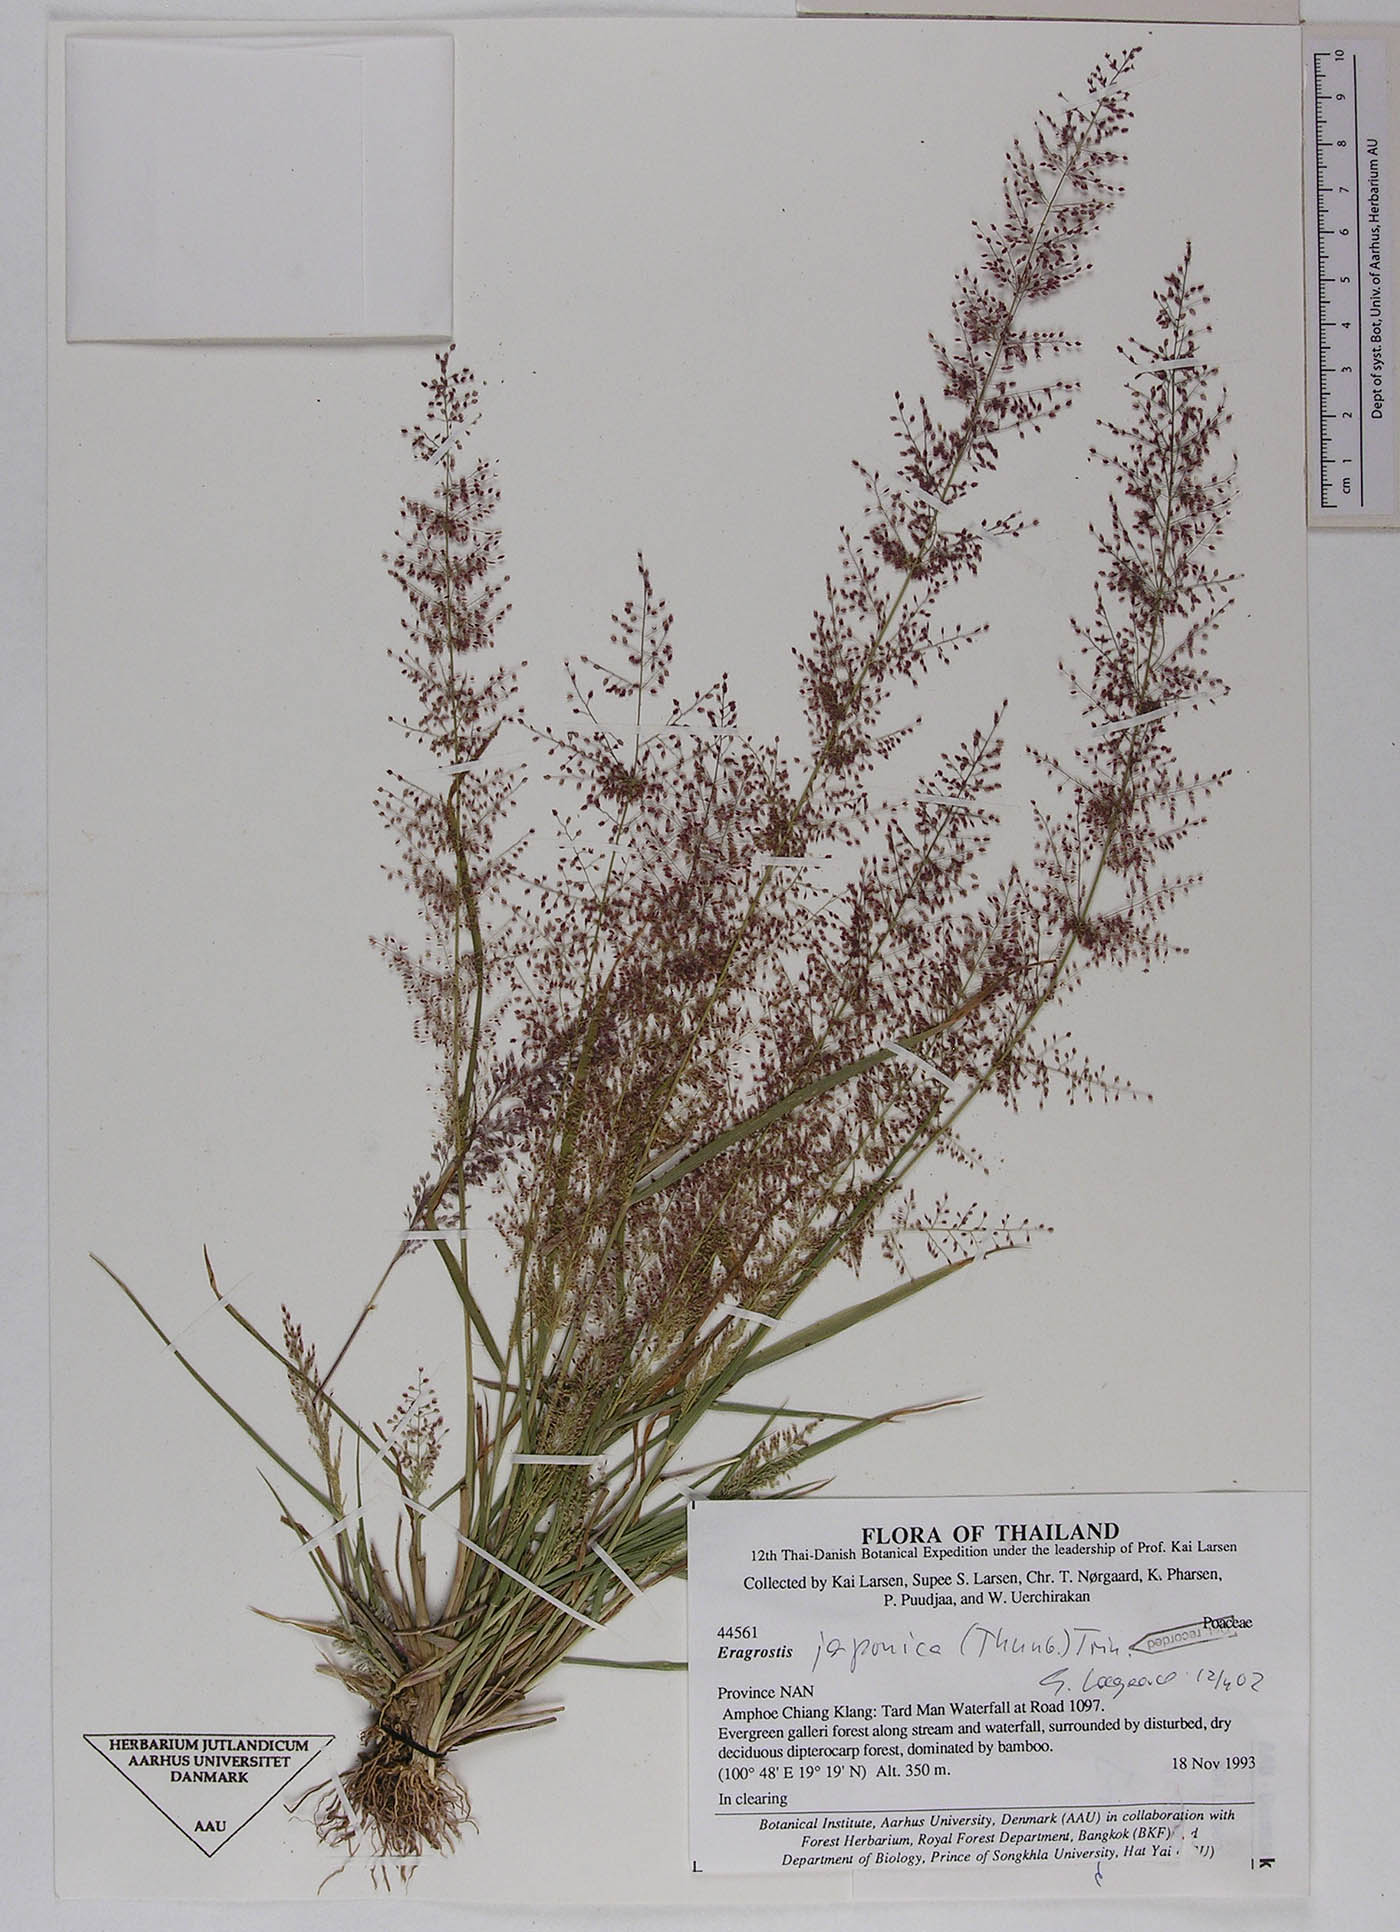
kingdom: Plantae
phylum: Tracheophyta
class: Liliopsida
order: Poales
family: Poaceae
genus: Eragrostis
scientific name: Eragrostis japonica
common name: Pond lovegrass
